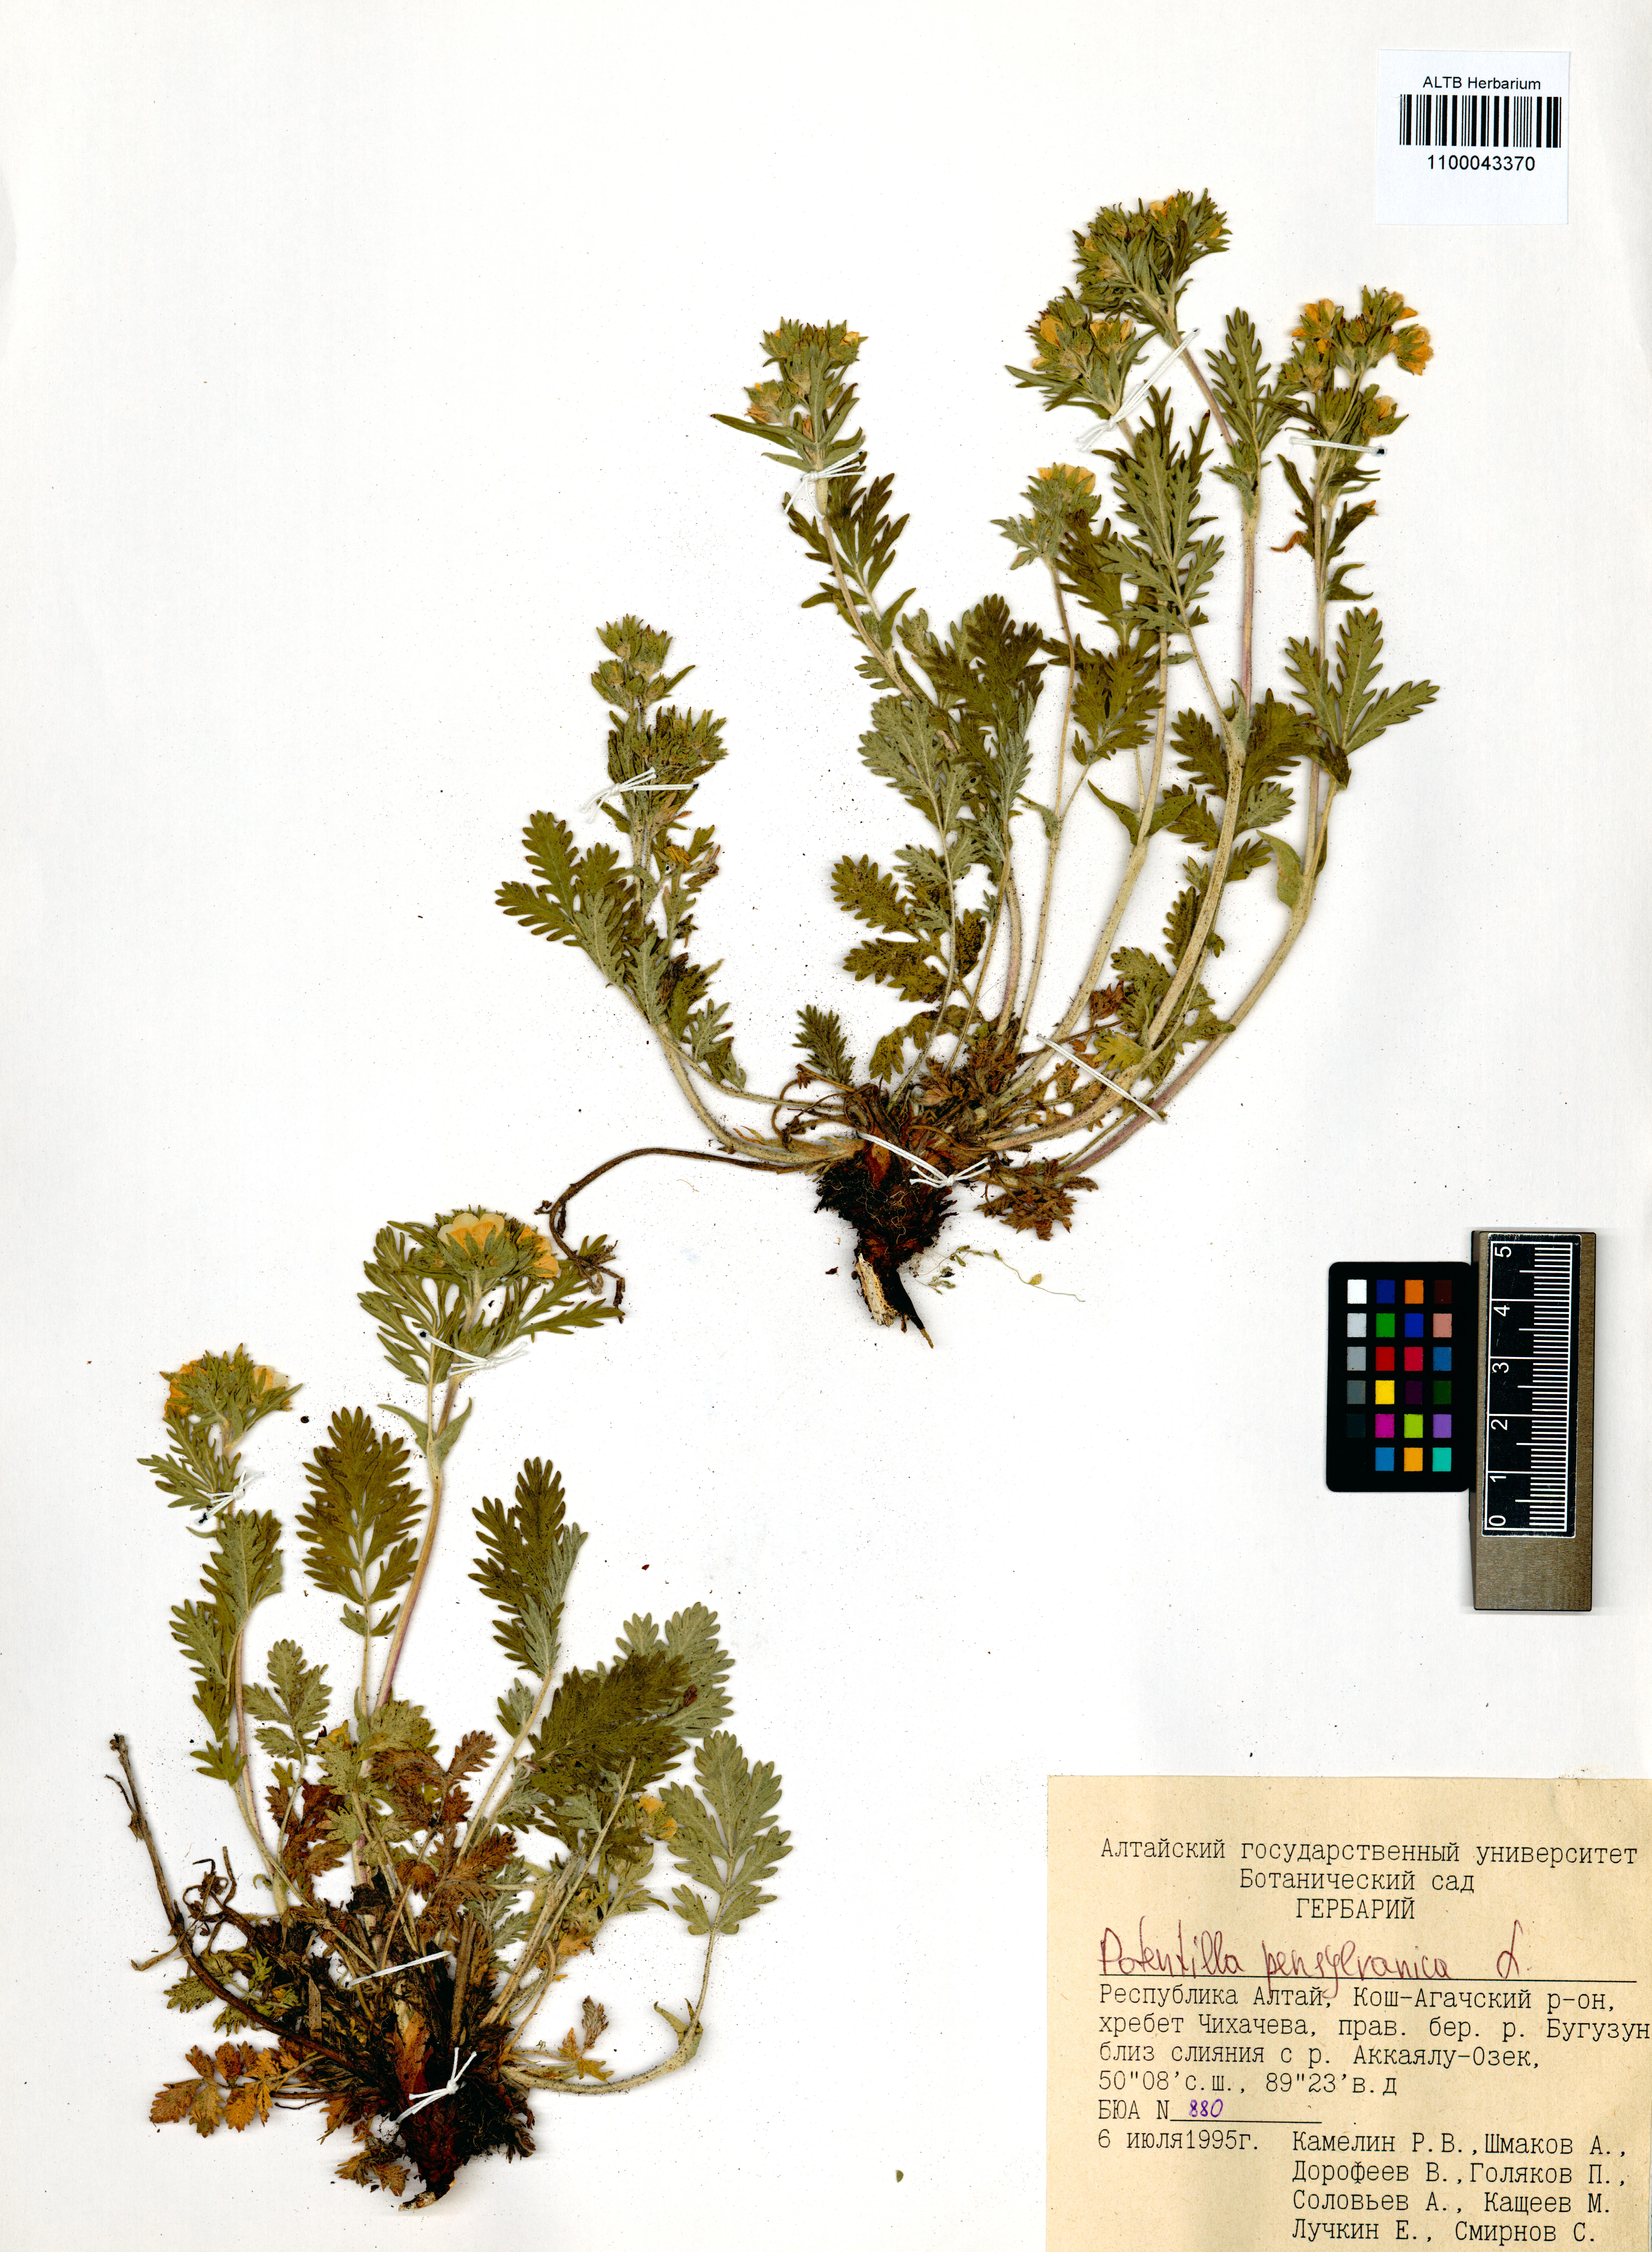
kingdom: Plantae
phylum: Tracheophyta
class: Magnoliopsida
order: Rosales
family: Rosaceae
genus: Potentilla
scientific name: Potentilla pensylvanica
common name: Pennsylvania cinquefoil
